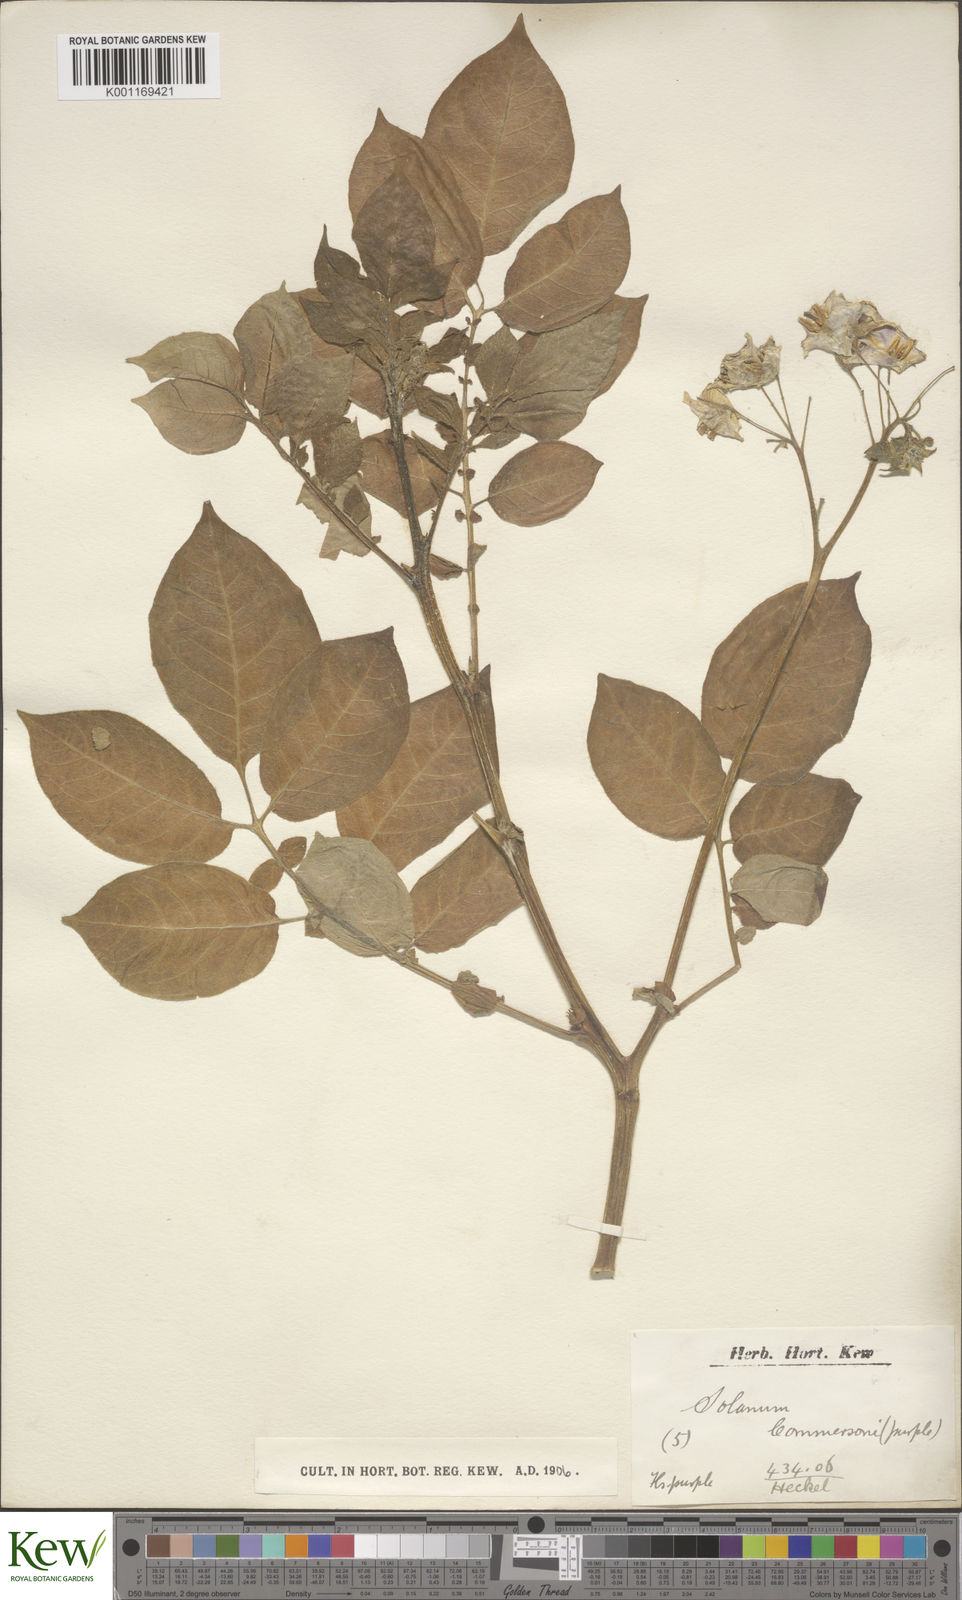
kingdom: Plantae
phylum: Tracheophyta
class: Magnoliopsida
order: Solanales
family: Solanaceae
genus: Solanum
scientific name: Solanum commersonii
